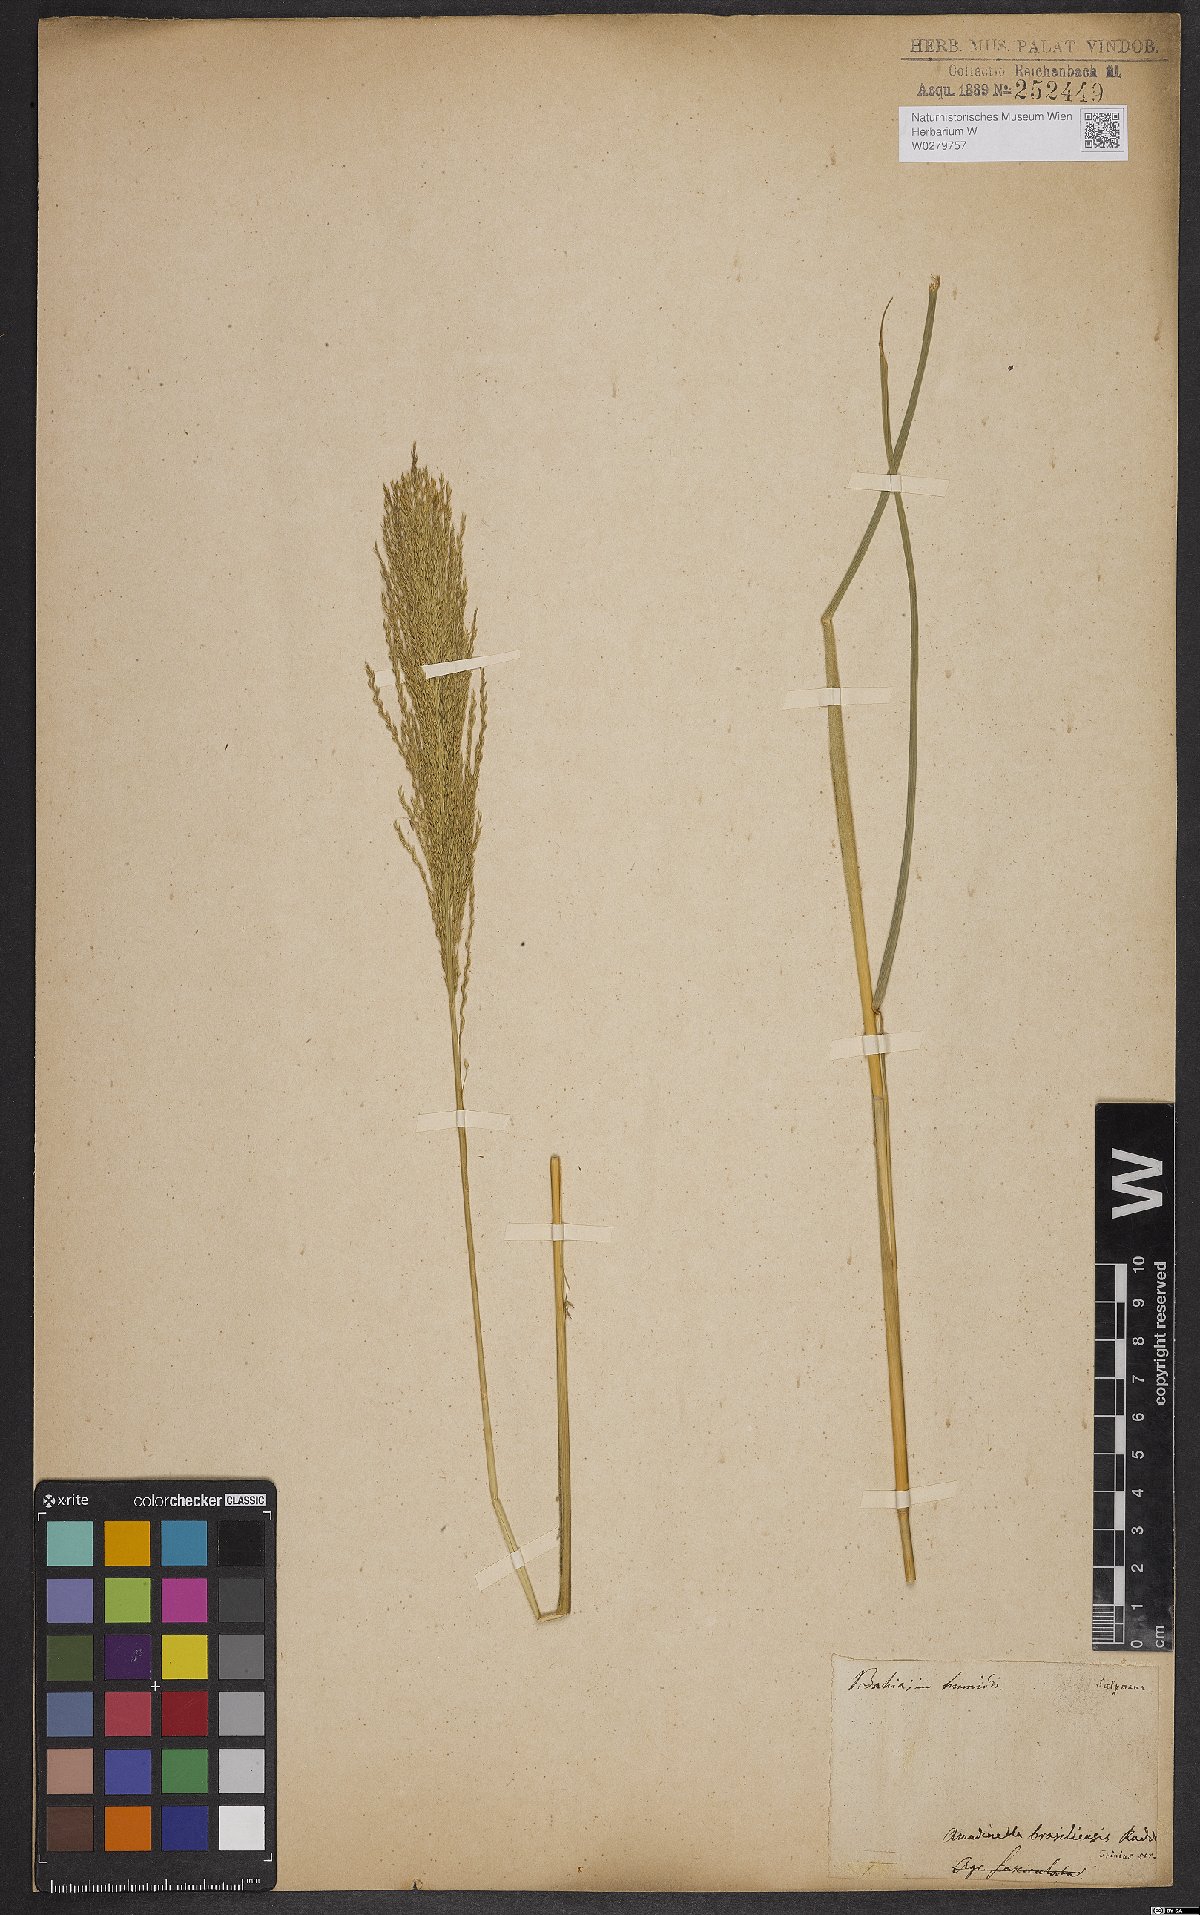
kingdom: Plantae
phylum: Tracheophyta
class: Liliopsida
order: Poales
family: Poaceae
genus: Arundinella
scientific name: Arundinella hispida
